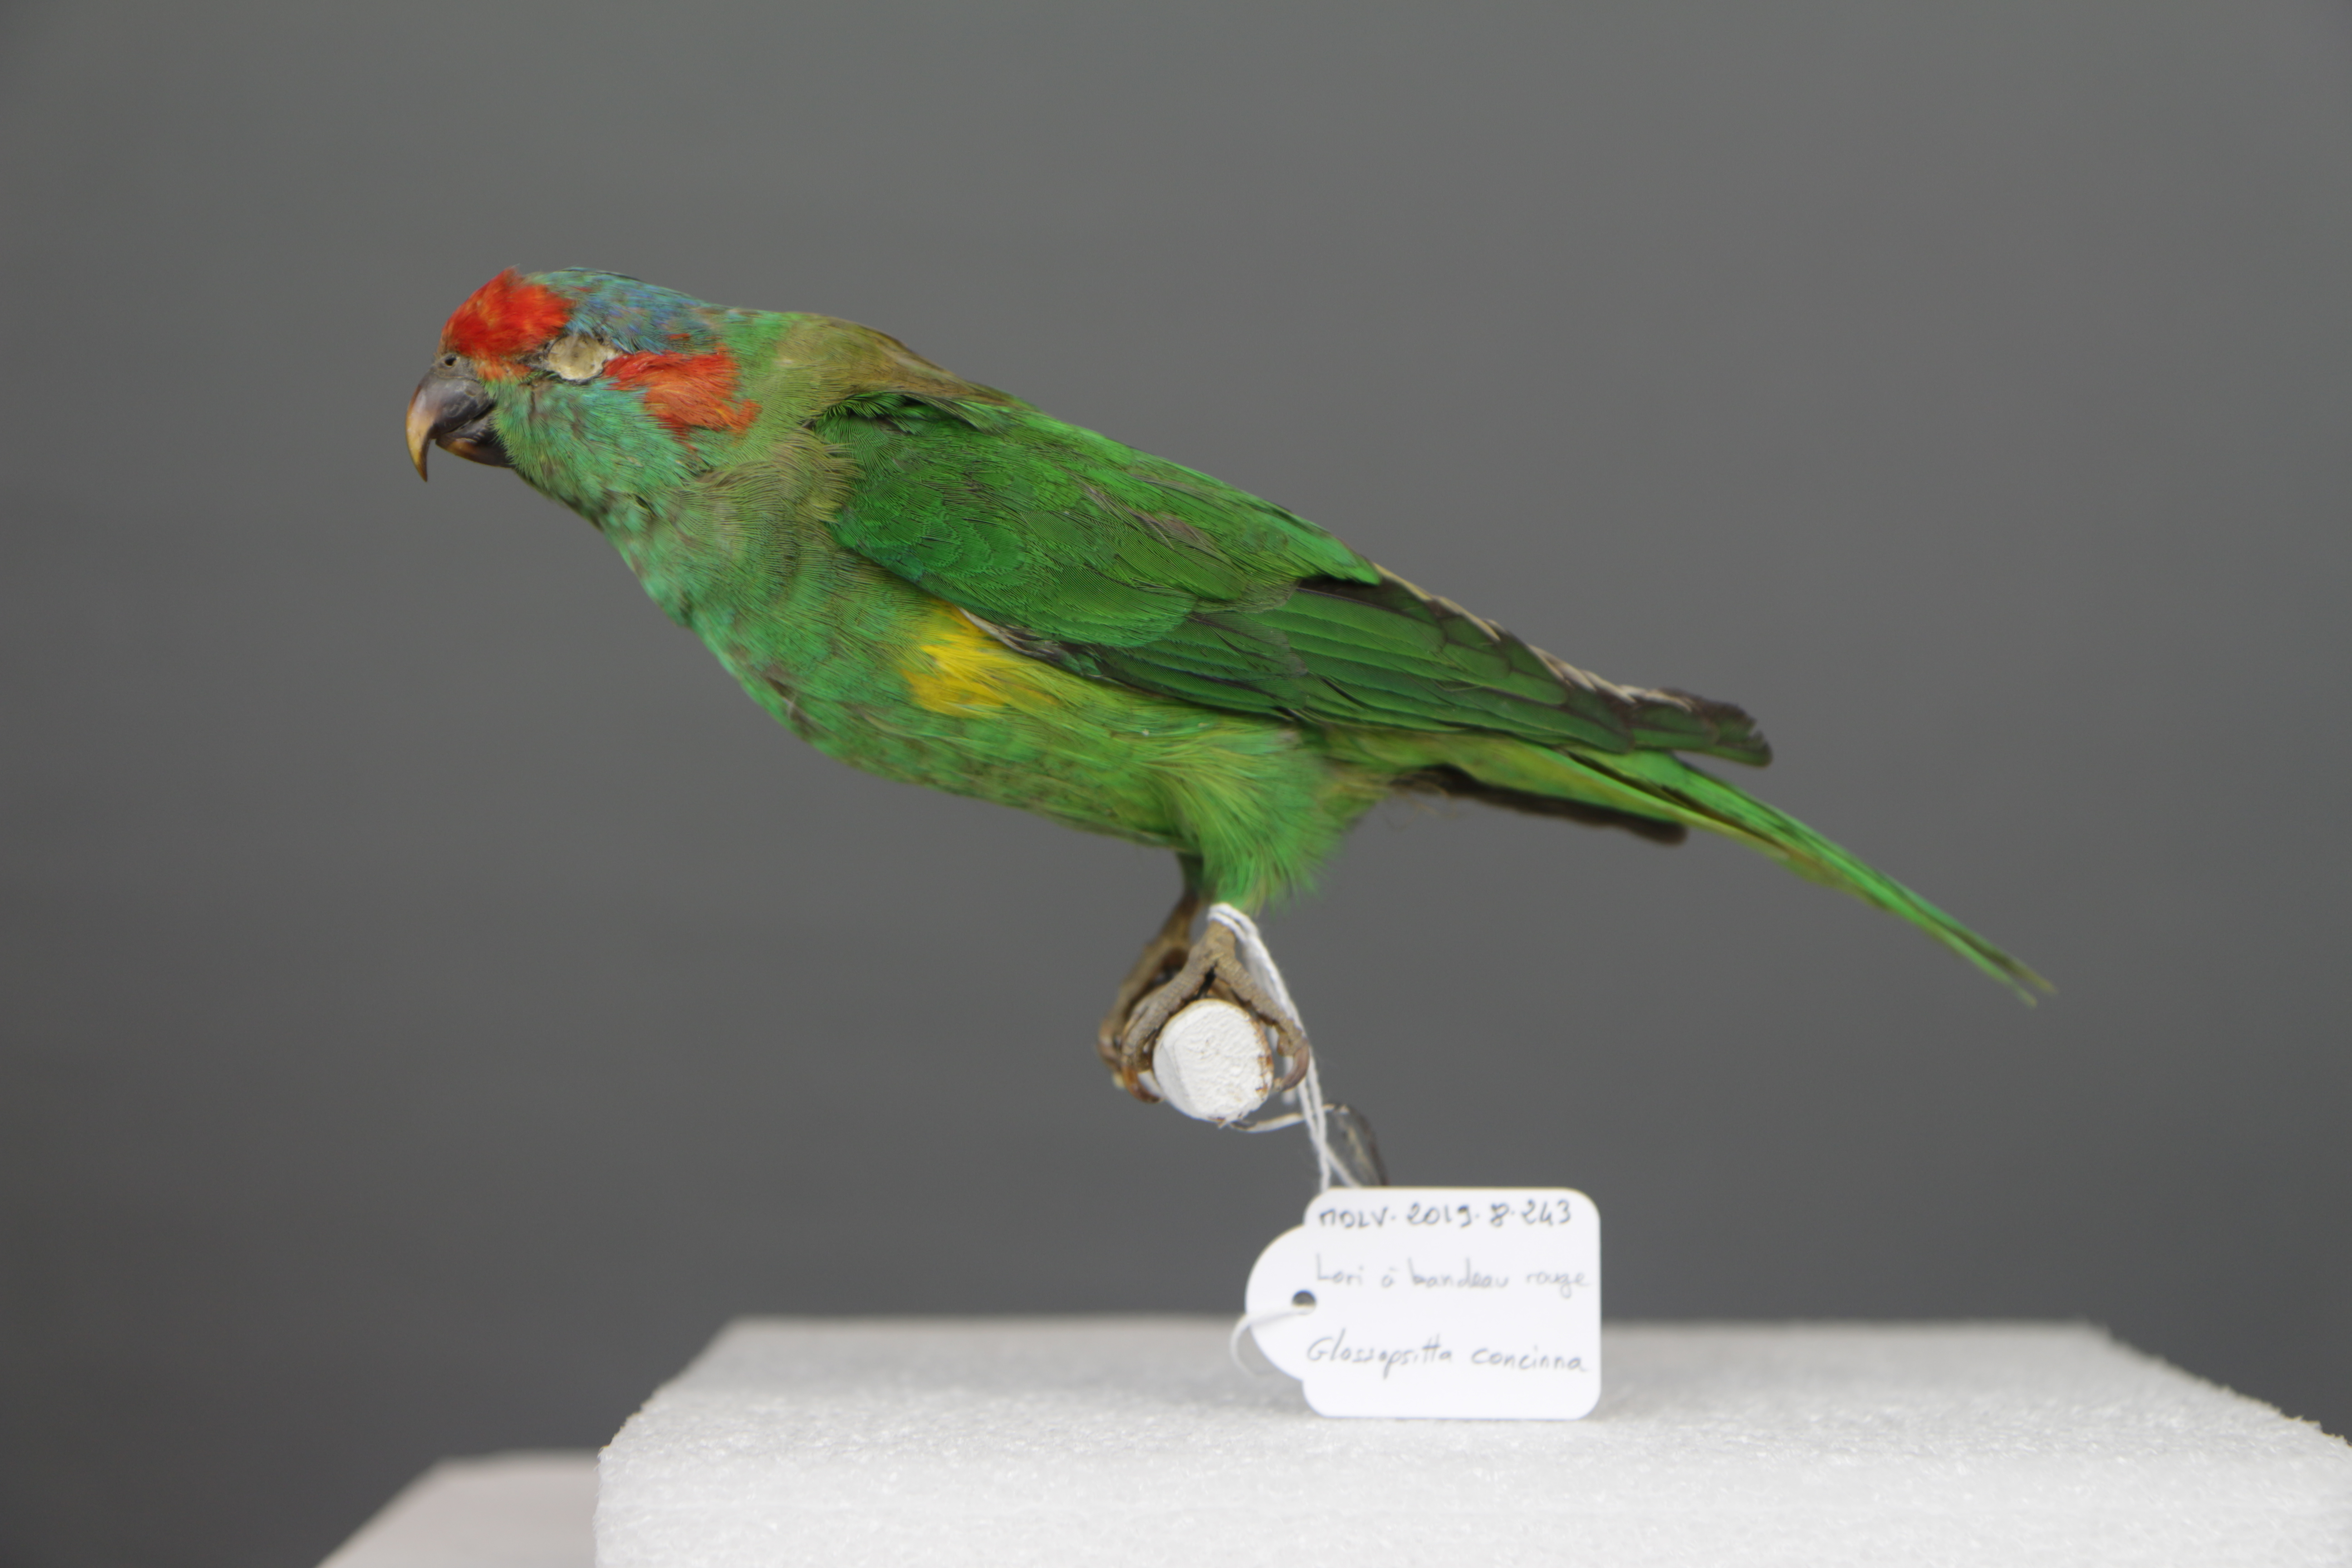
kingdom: Animalia
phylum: Chordata
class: Aves
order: Psittaciformes
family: Psittacidae
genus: Glossopsitta
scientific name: Glossopsitta concinna
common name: Musk lorikeet
